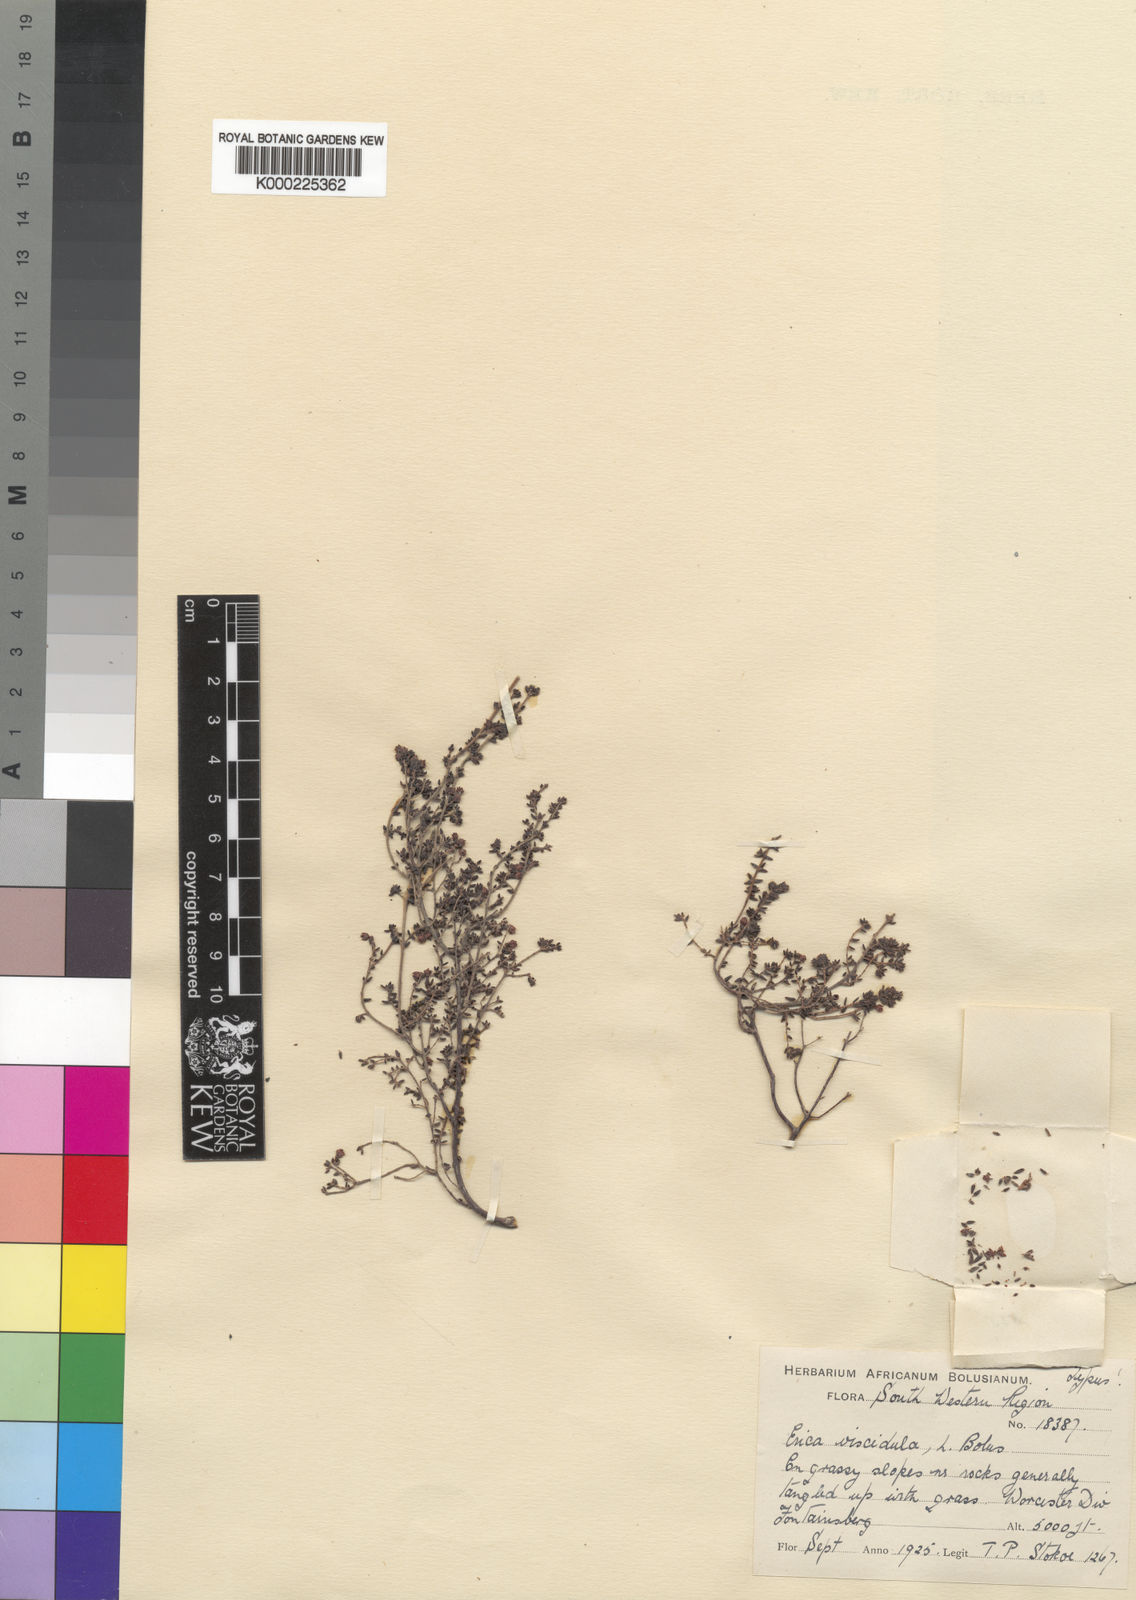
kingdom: Plantae
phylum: Tracheophyta
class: Magnoliopsida
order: Ericales
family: Ericaceae
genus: Erica
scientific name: Erica hispidula
